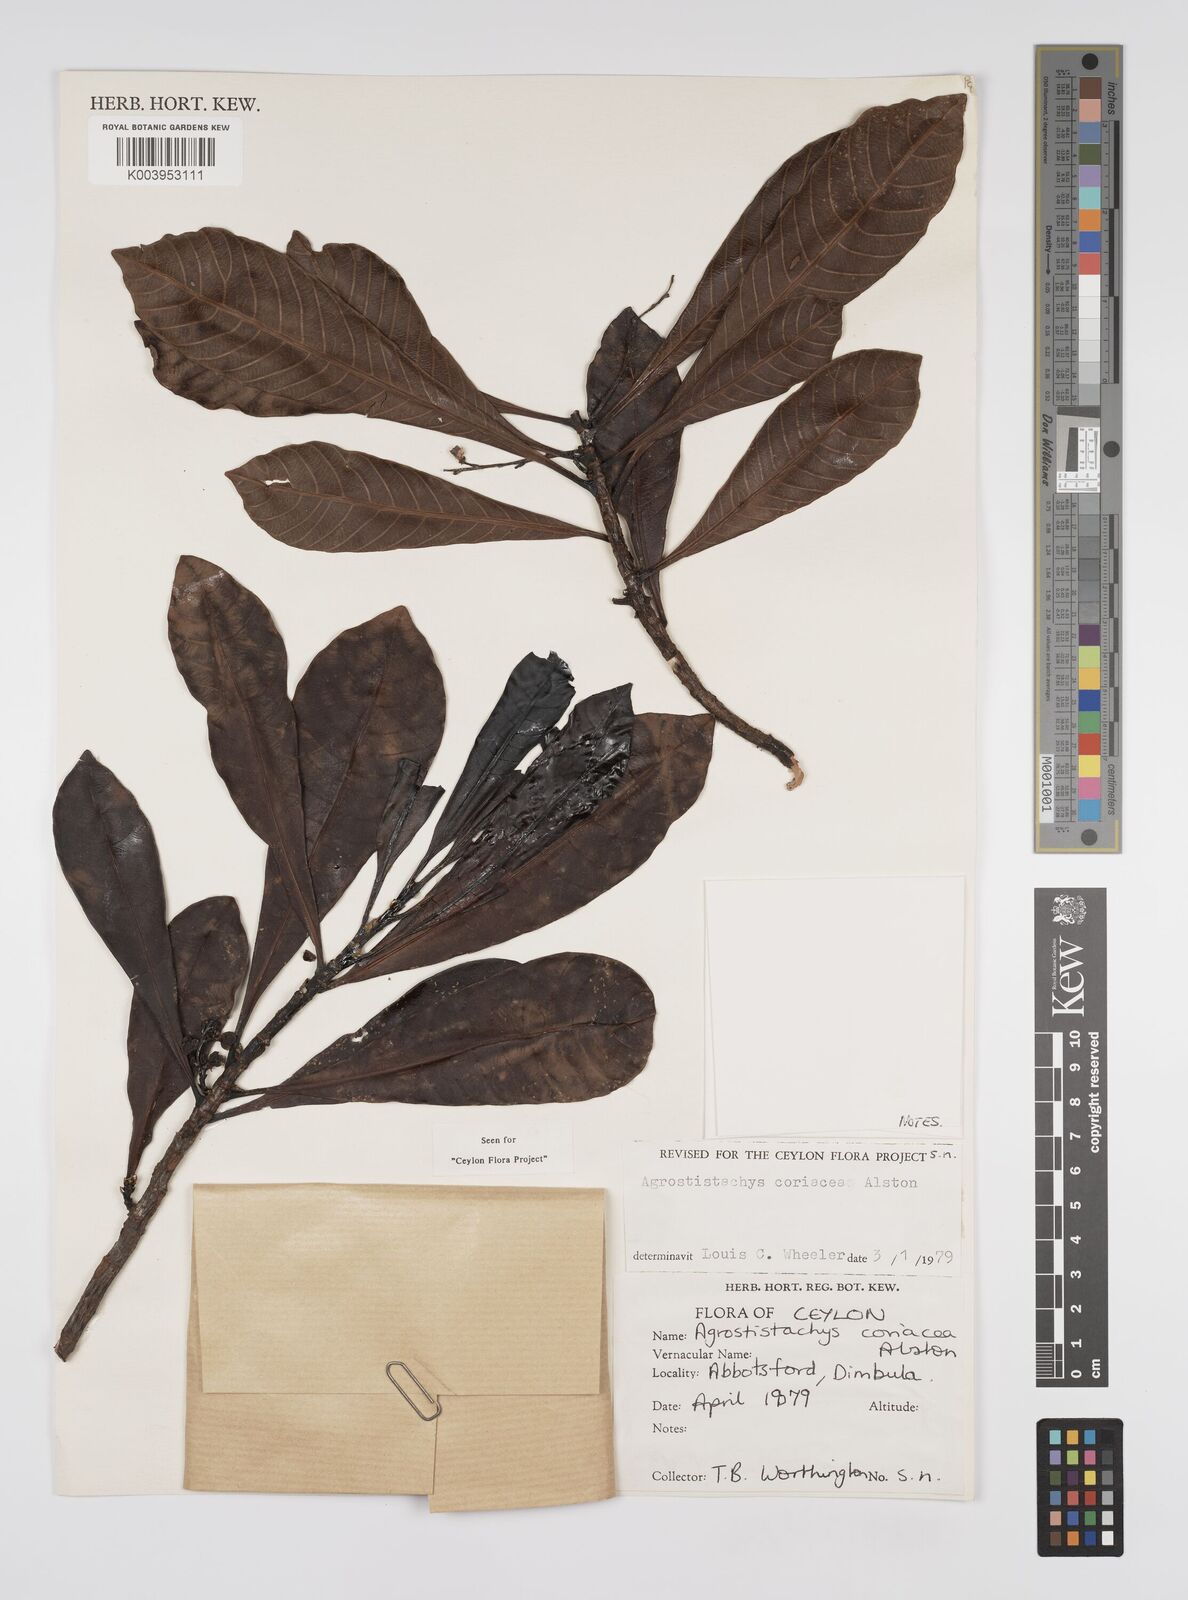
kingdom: Plantae
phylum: Tracheophyta
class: Magnoliopsida
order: Malpighiales
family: Euphorbiaceae
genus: Agrostistachys
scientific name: Agrostistachys borneensis
